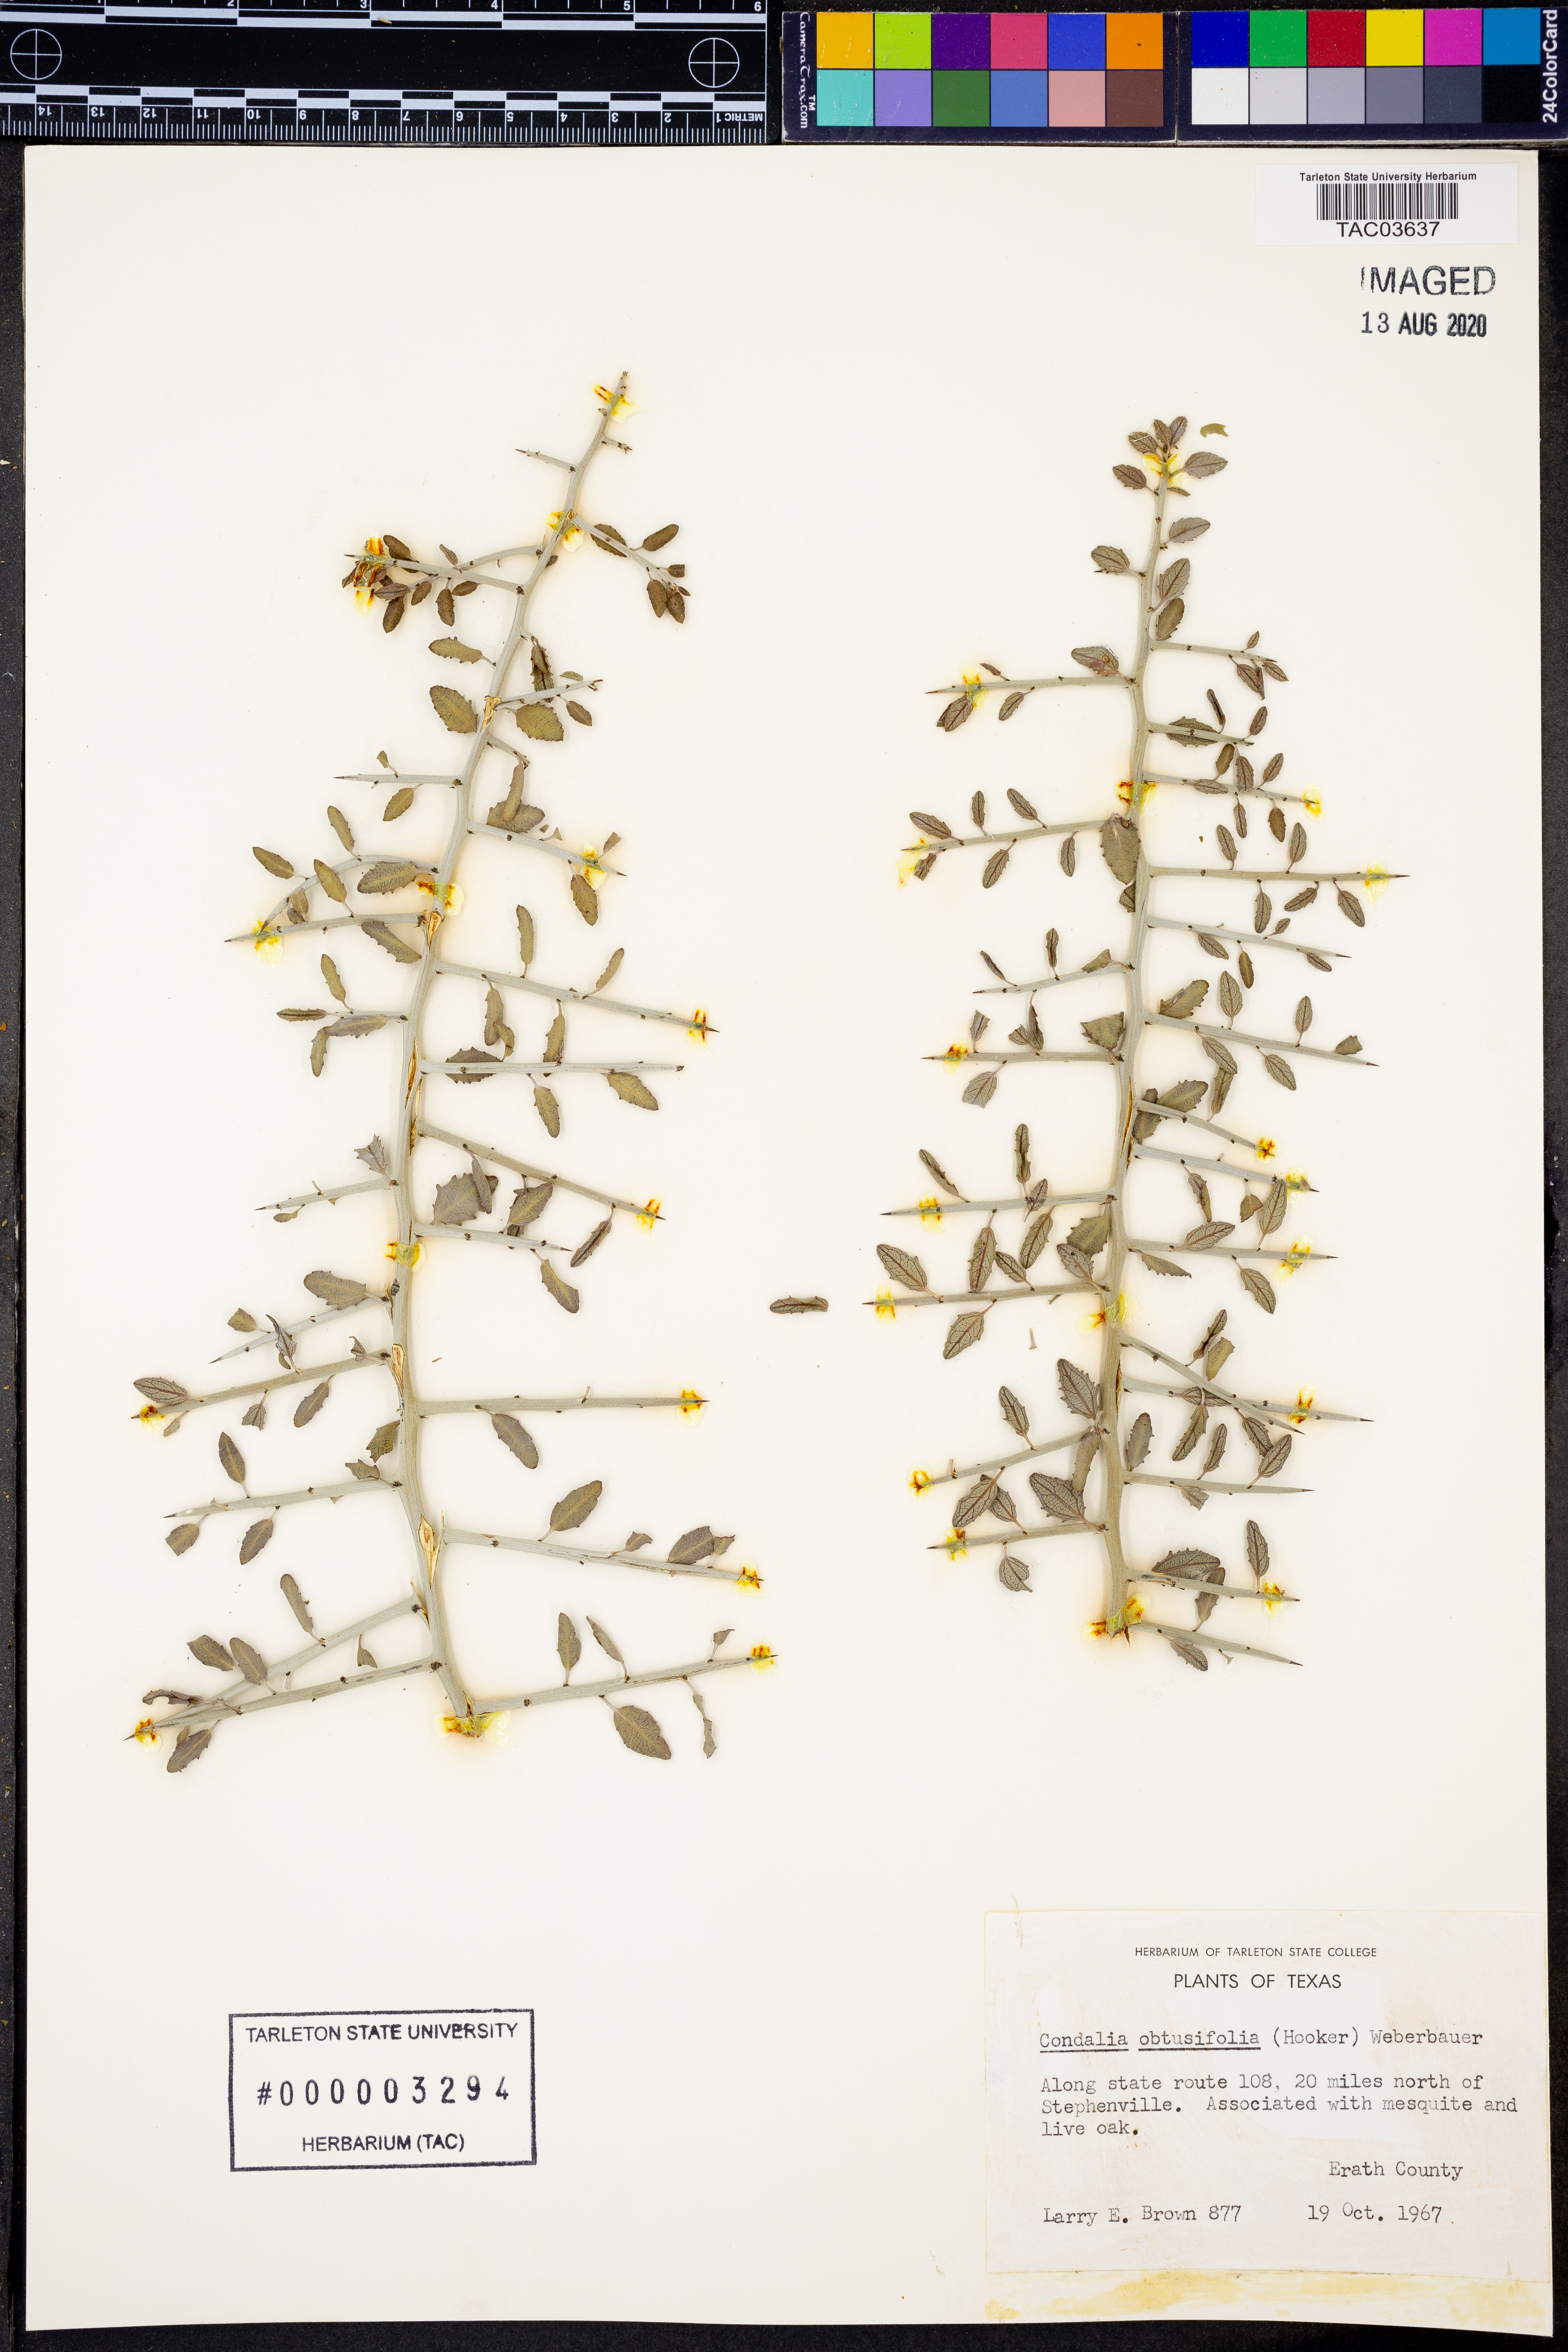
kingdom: Plantae
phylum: Tracheophyta
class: Magnoliopsida
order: Rosales
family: Rhamnaceae
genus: Sarcomphalus
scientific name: Sarcomphalus obtusifolius
